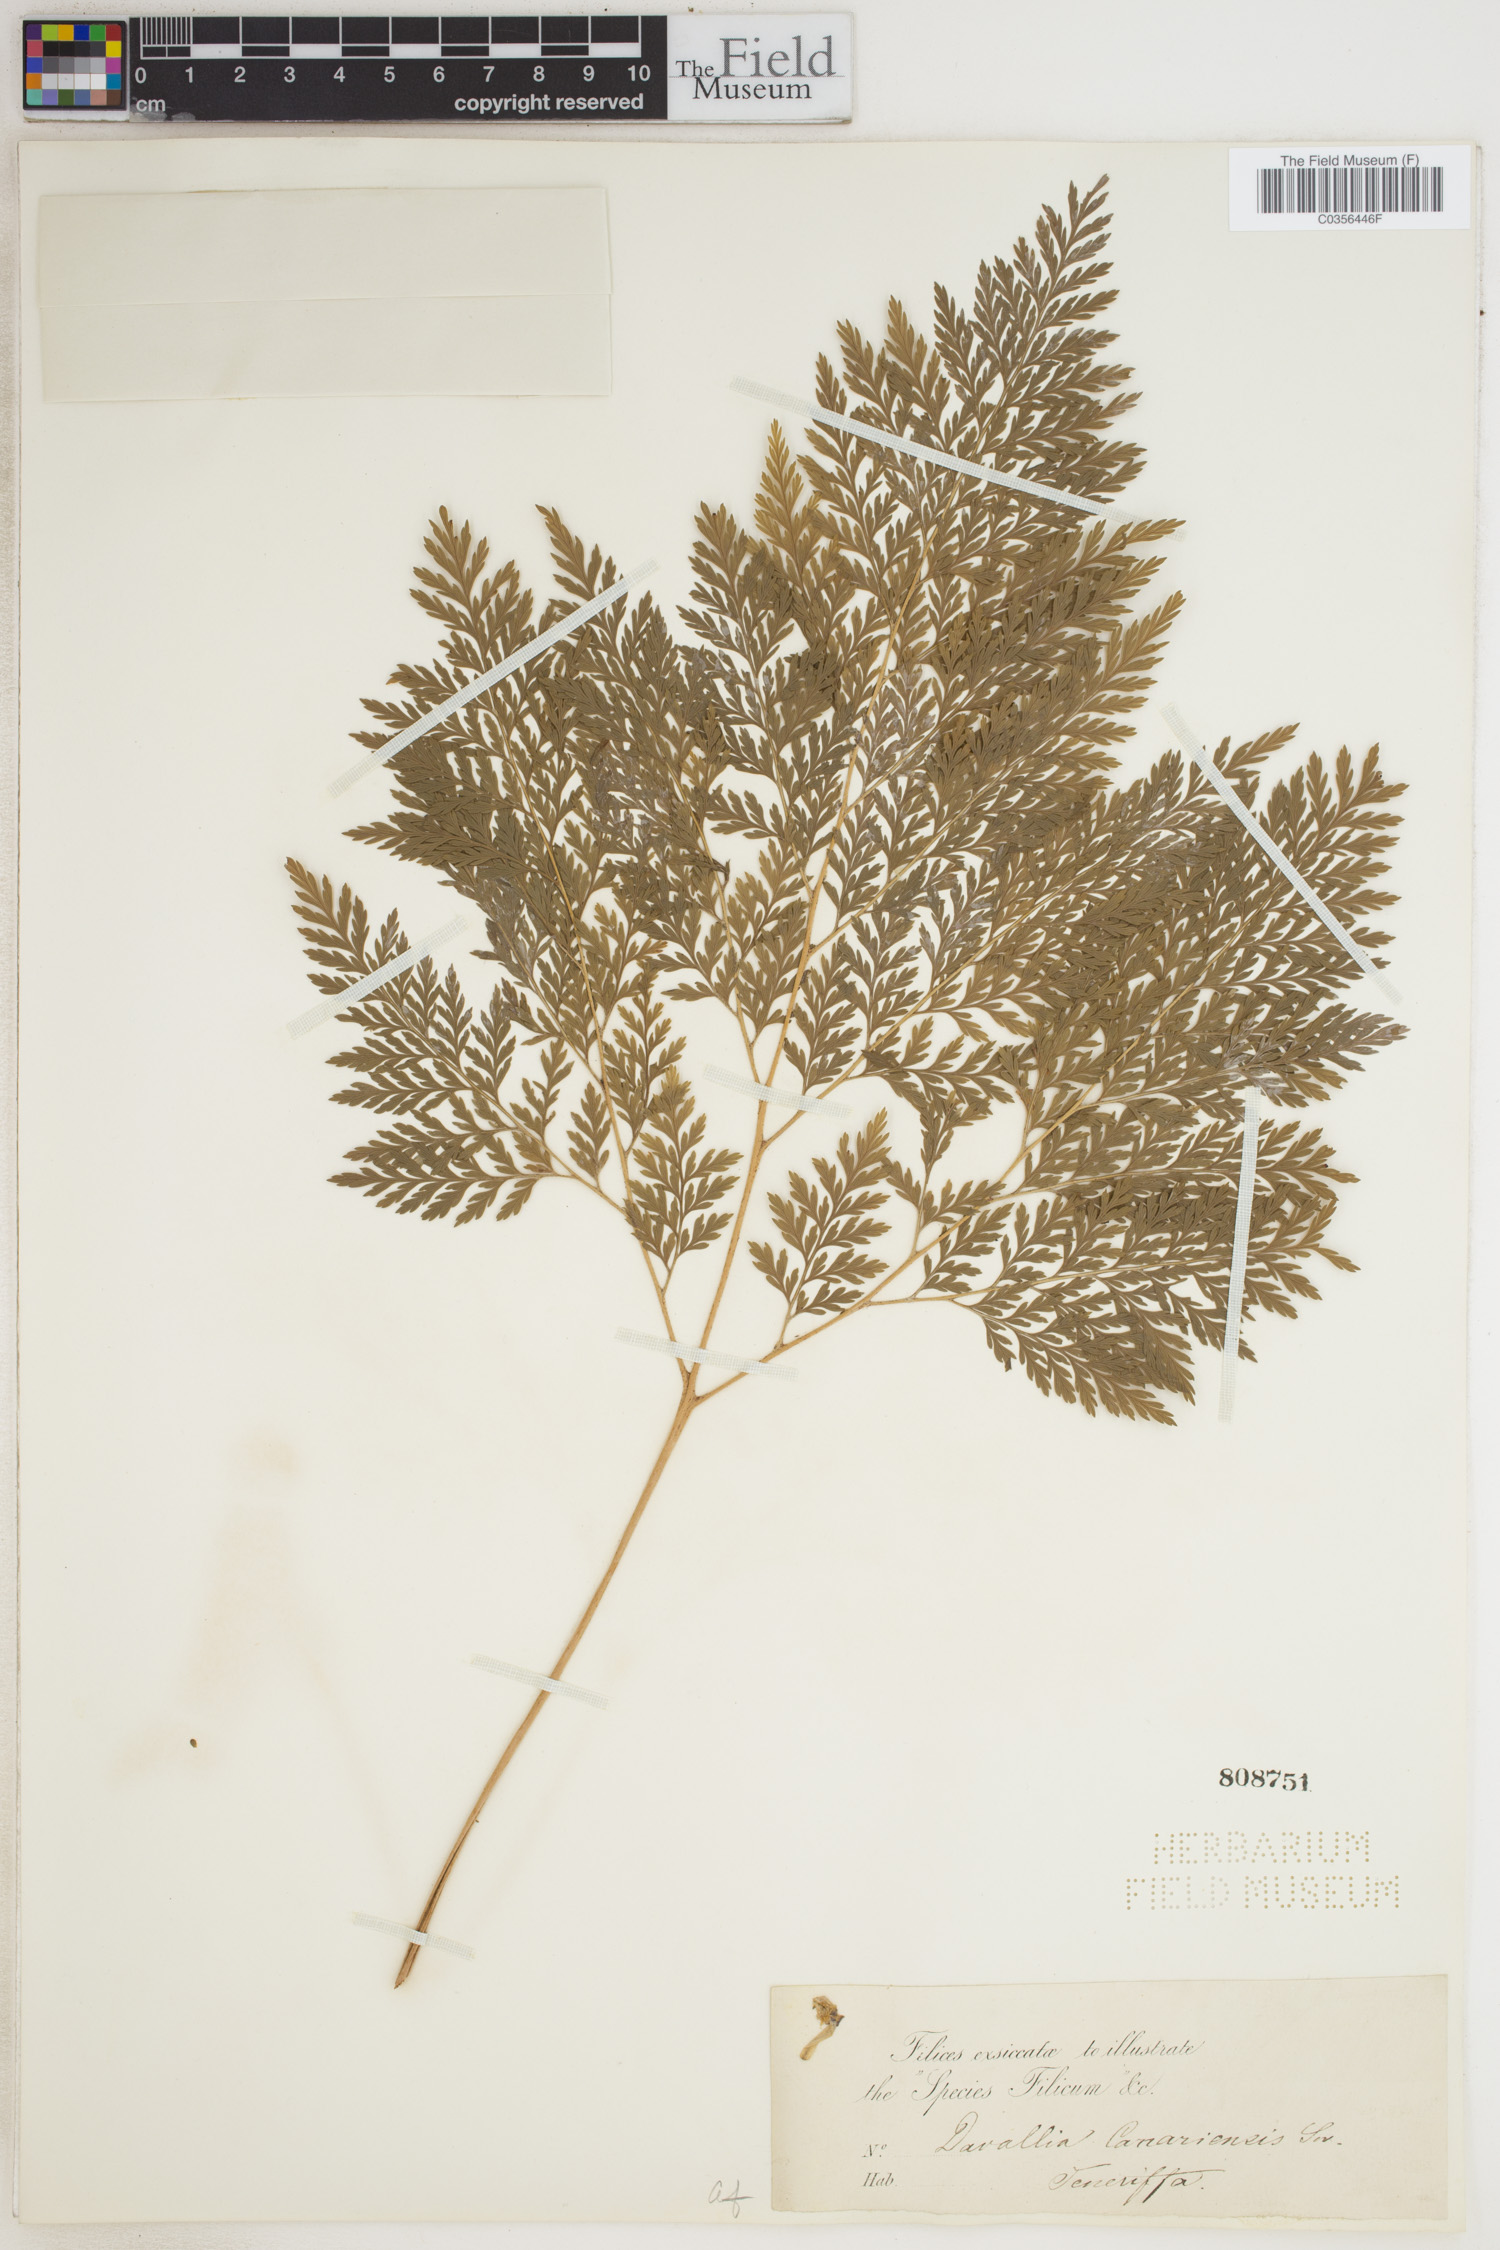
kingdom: Plantae
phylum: Tracheophyta
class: Polypodiopsida
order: Polypodiales
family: Davalliaceae
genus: Davallia
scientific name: Davallia canariensis
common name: Hare's-foot fern
